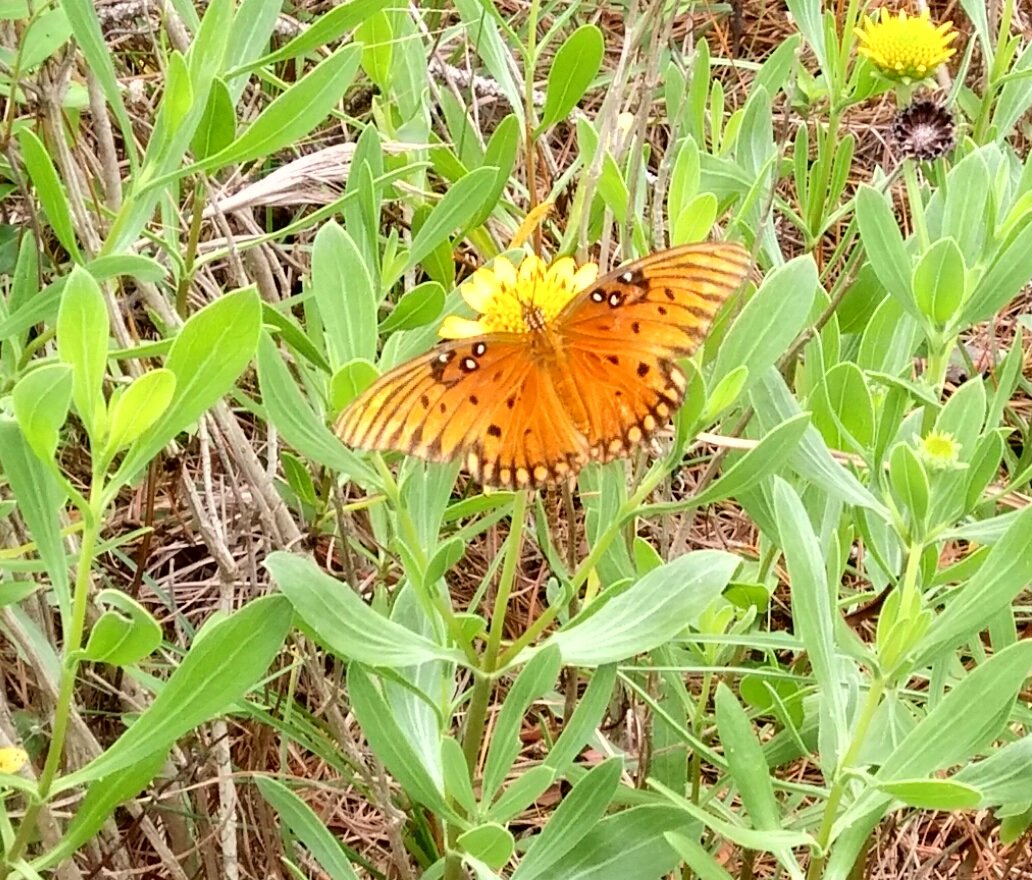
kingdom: Animalia
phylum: Arthropoda
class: Insecta
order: Lepidoptera
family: Nymphalidae
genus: Dione
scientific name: Dione vanillae
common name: Gulf Fritillary
